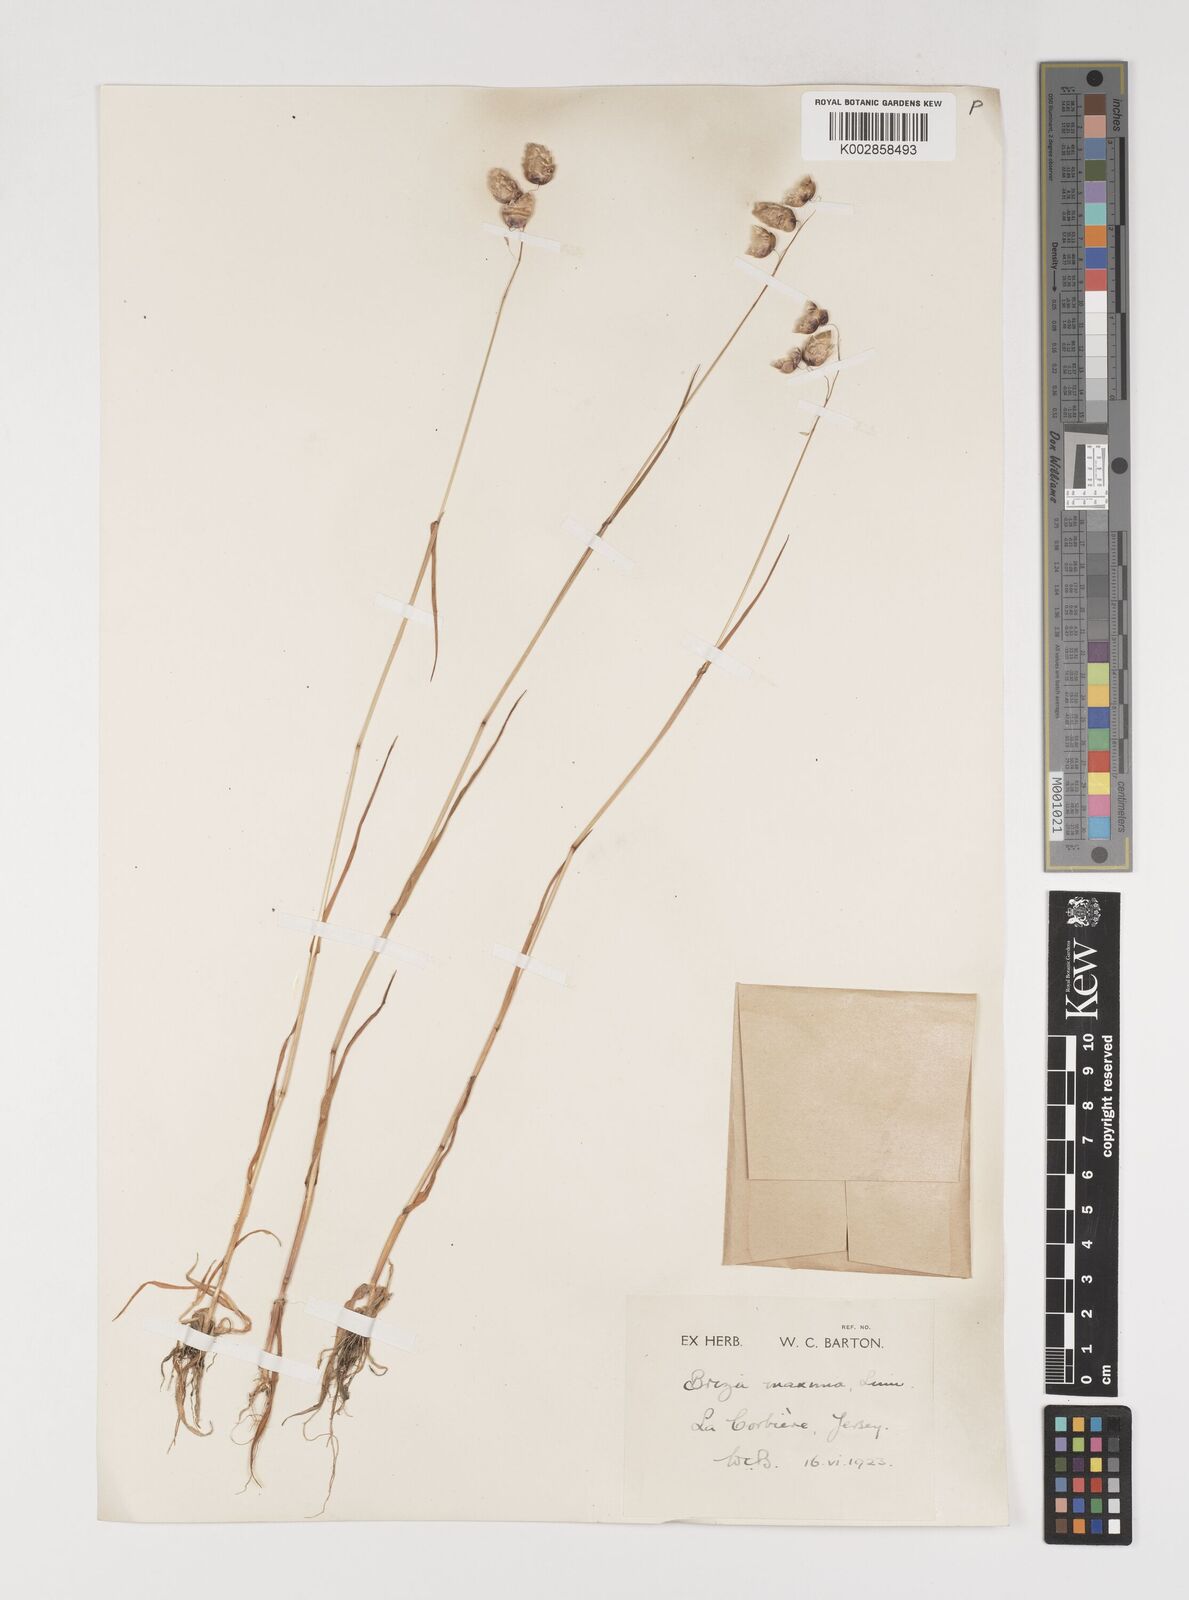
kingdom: Plantae
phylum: Tracheophyta
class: Liliopsida
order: Poales
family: Poaceae
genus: Briza
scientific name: Briza maxima
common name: Big quakinggrass
